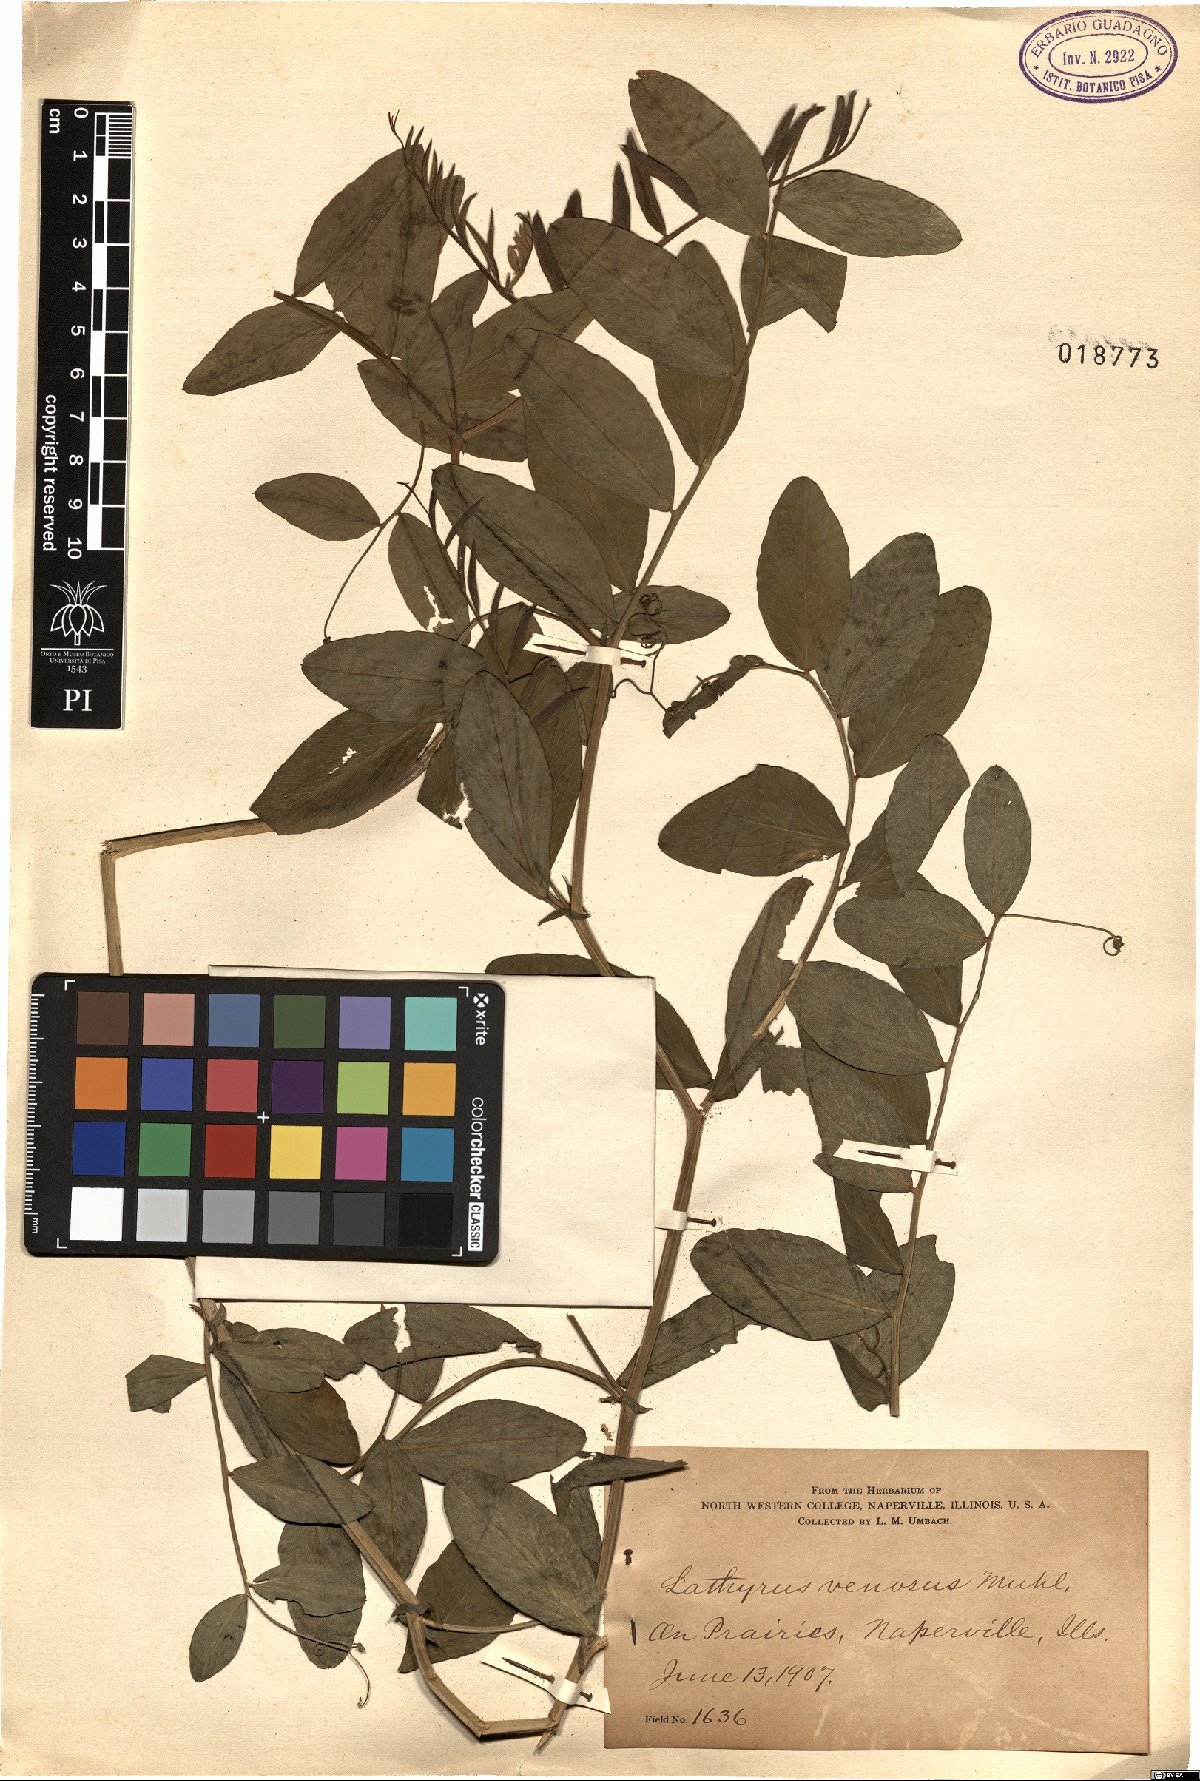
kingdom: Plantae
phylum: Tracheophyta
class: Magnoliopsida
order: Fabales
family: Fabaceae
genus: Lathyrus
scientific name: Lathyrus venosus
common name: Forest-pea
